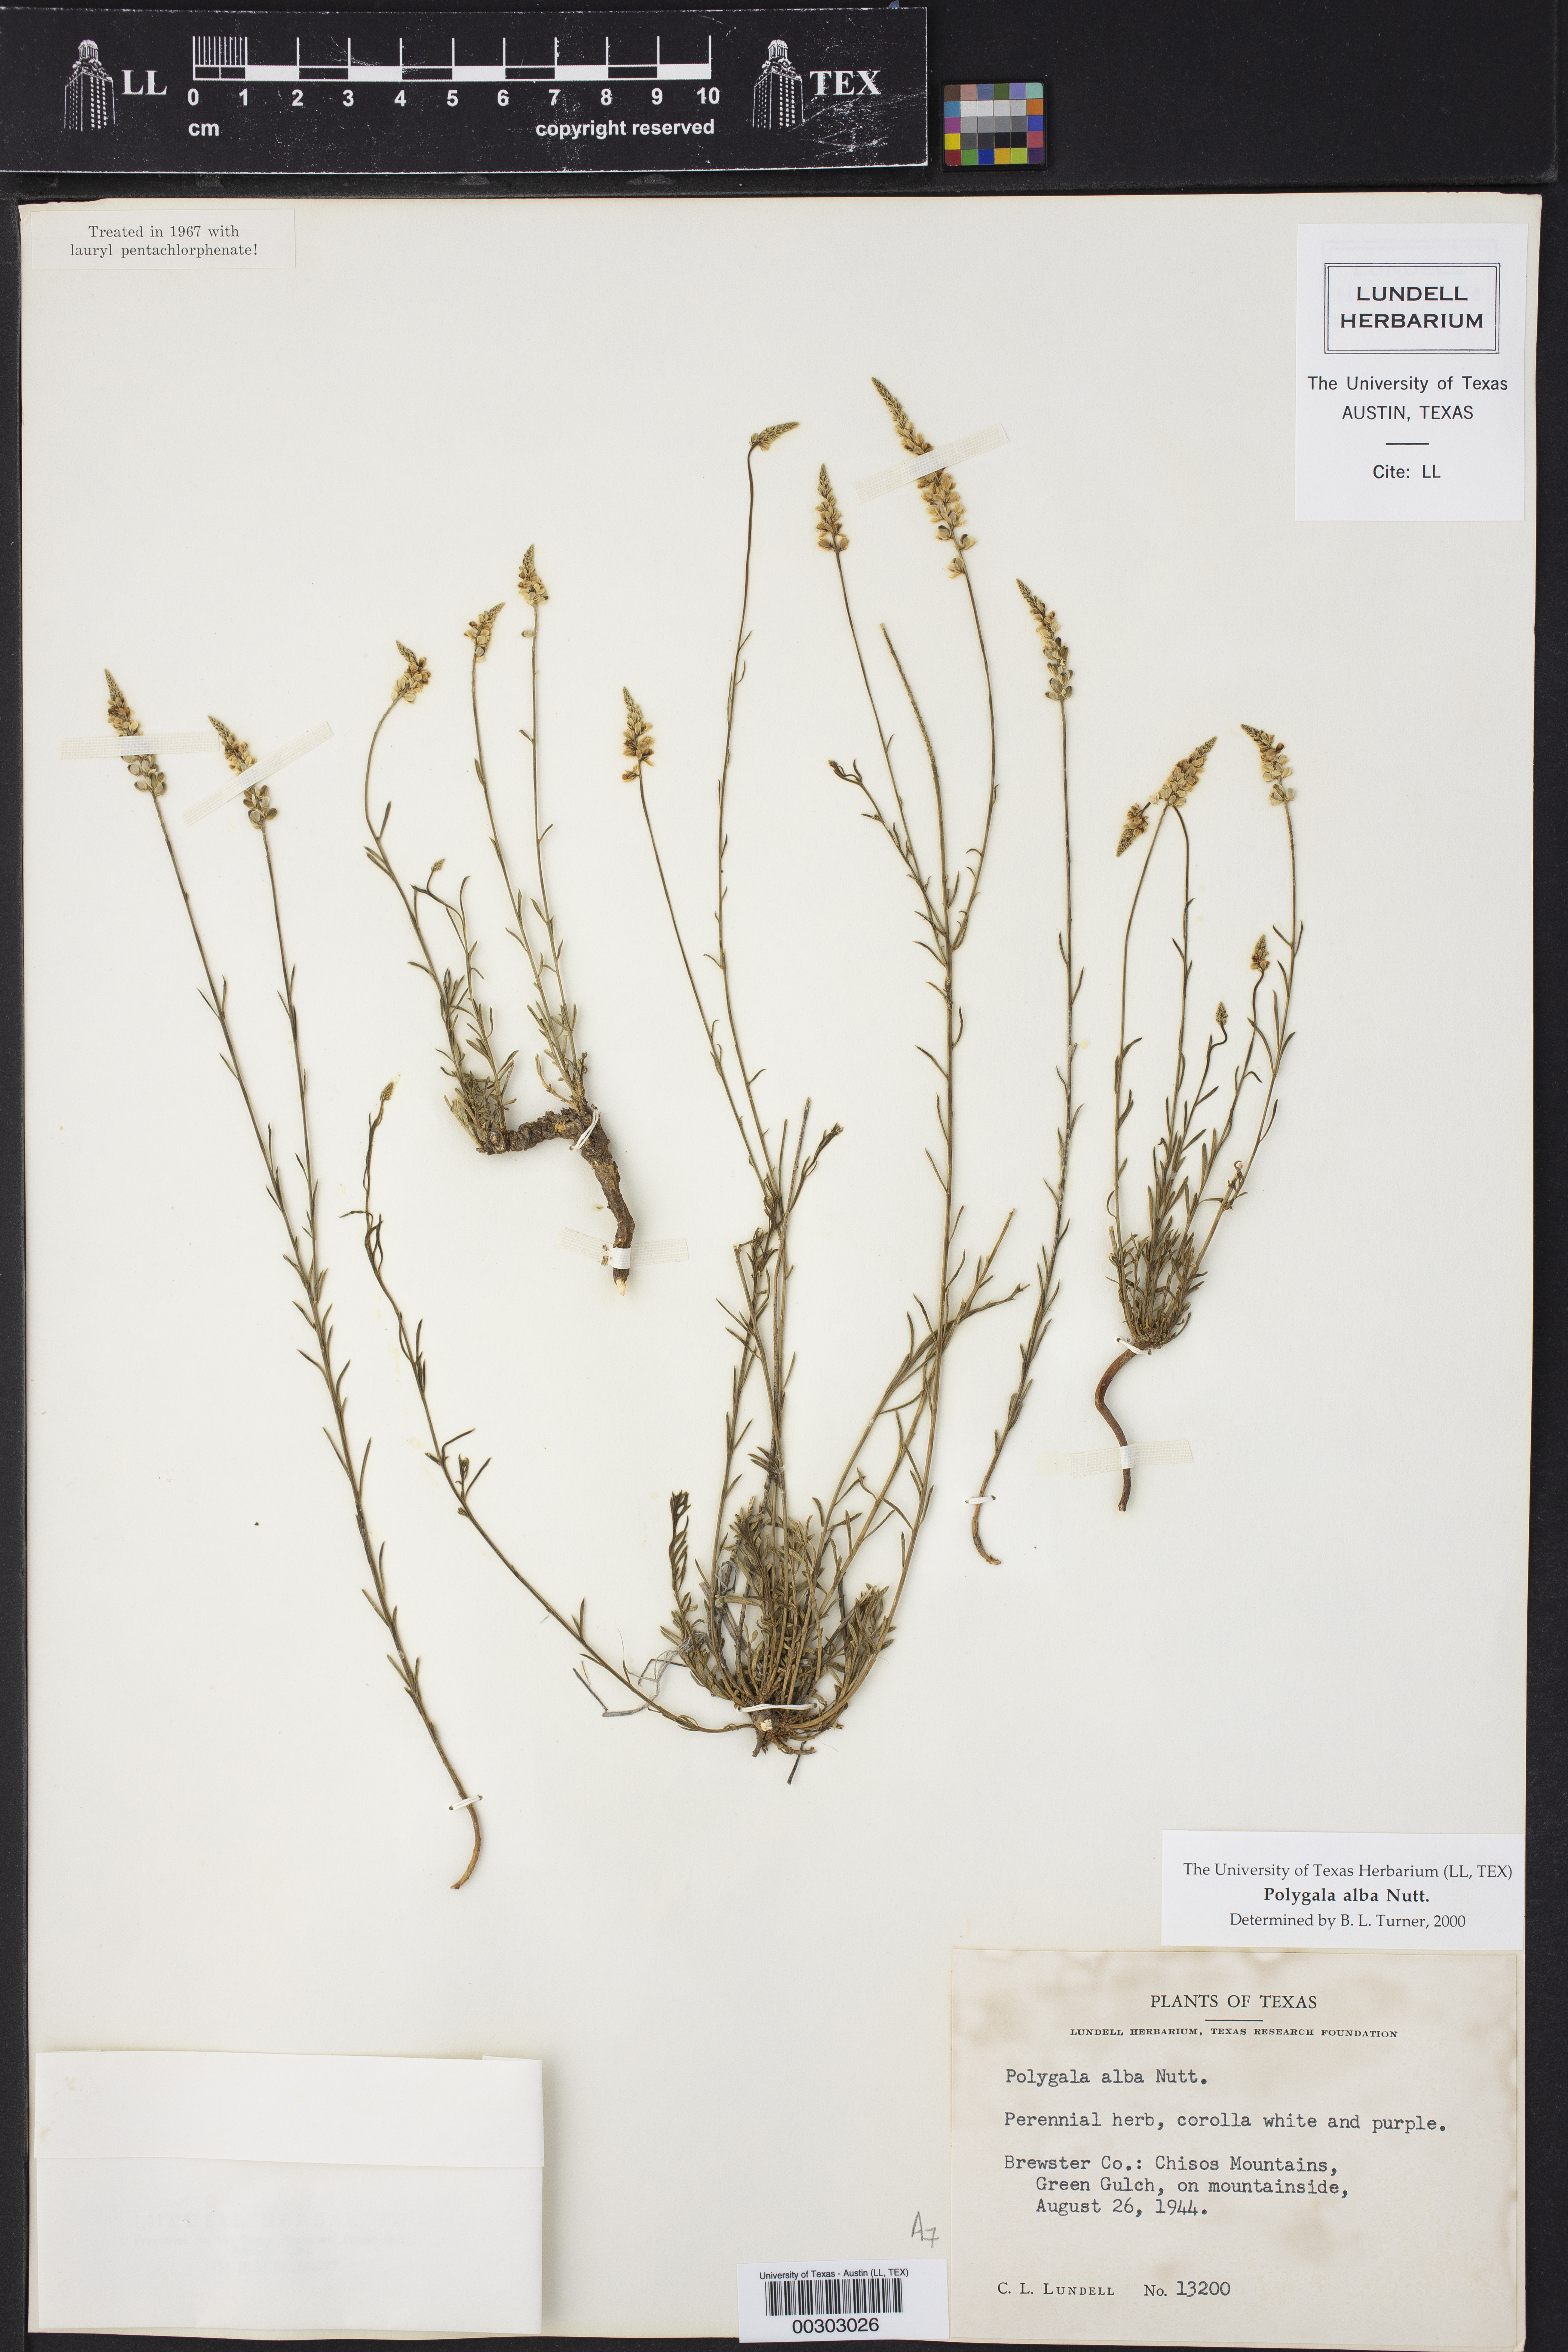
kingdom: Plantae
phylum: Tracheophyta
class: Magnoliopsida
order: Fabales
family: Polygalaceae
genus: Polygala
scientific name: Polygala alba
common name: White milkwort
